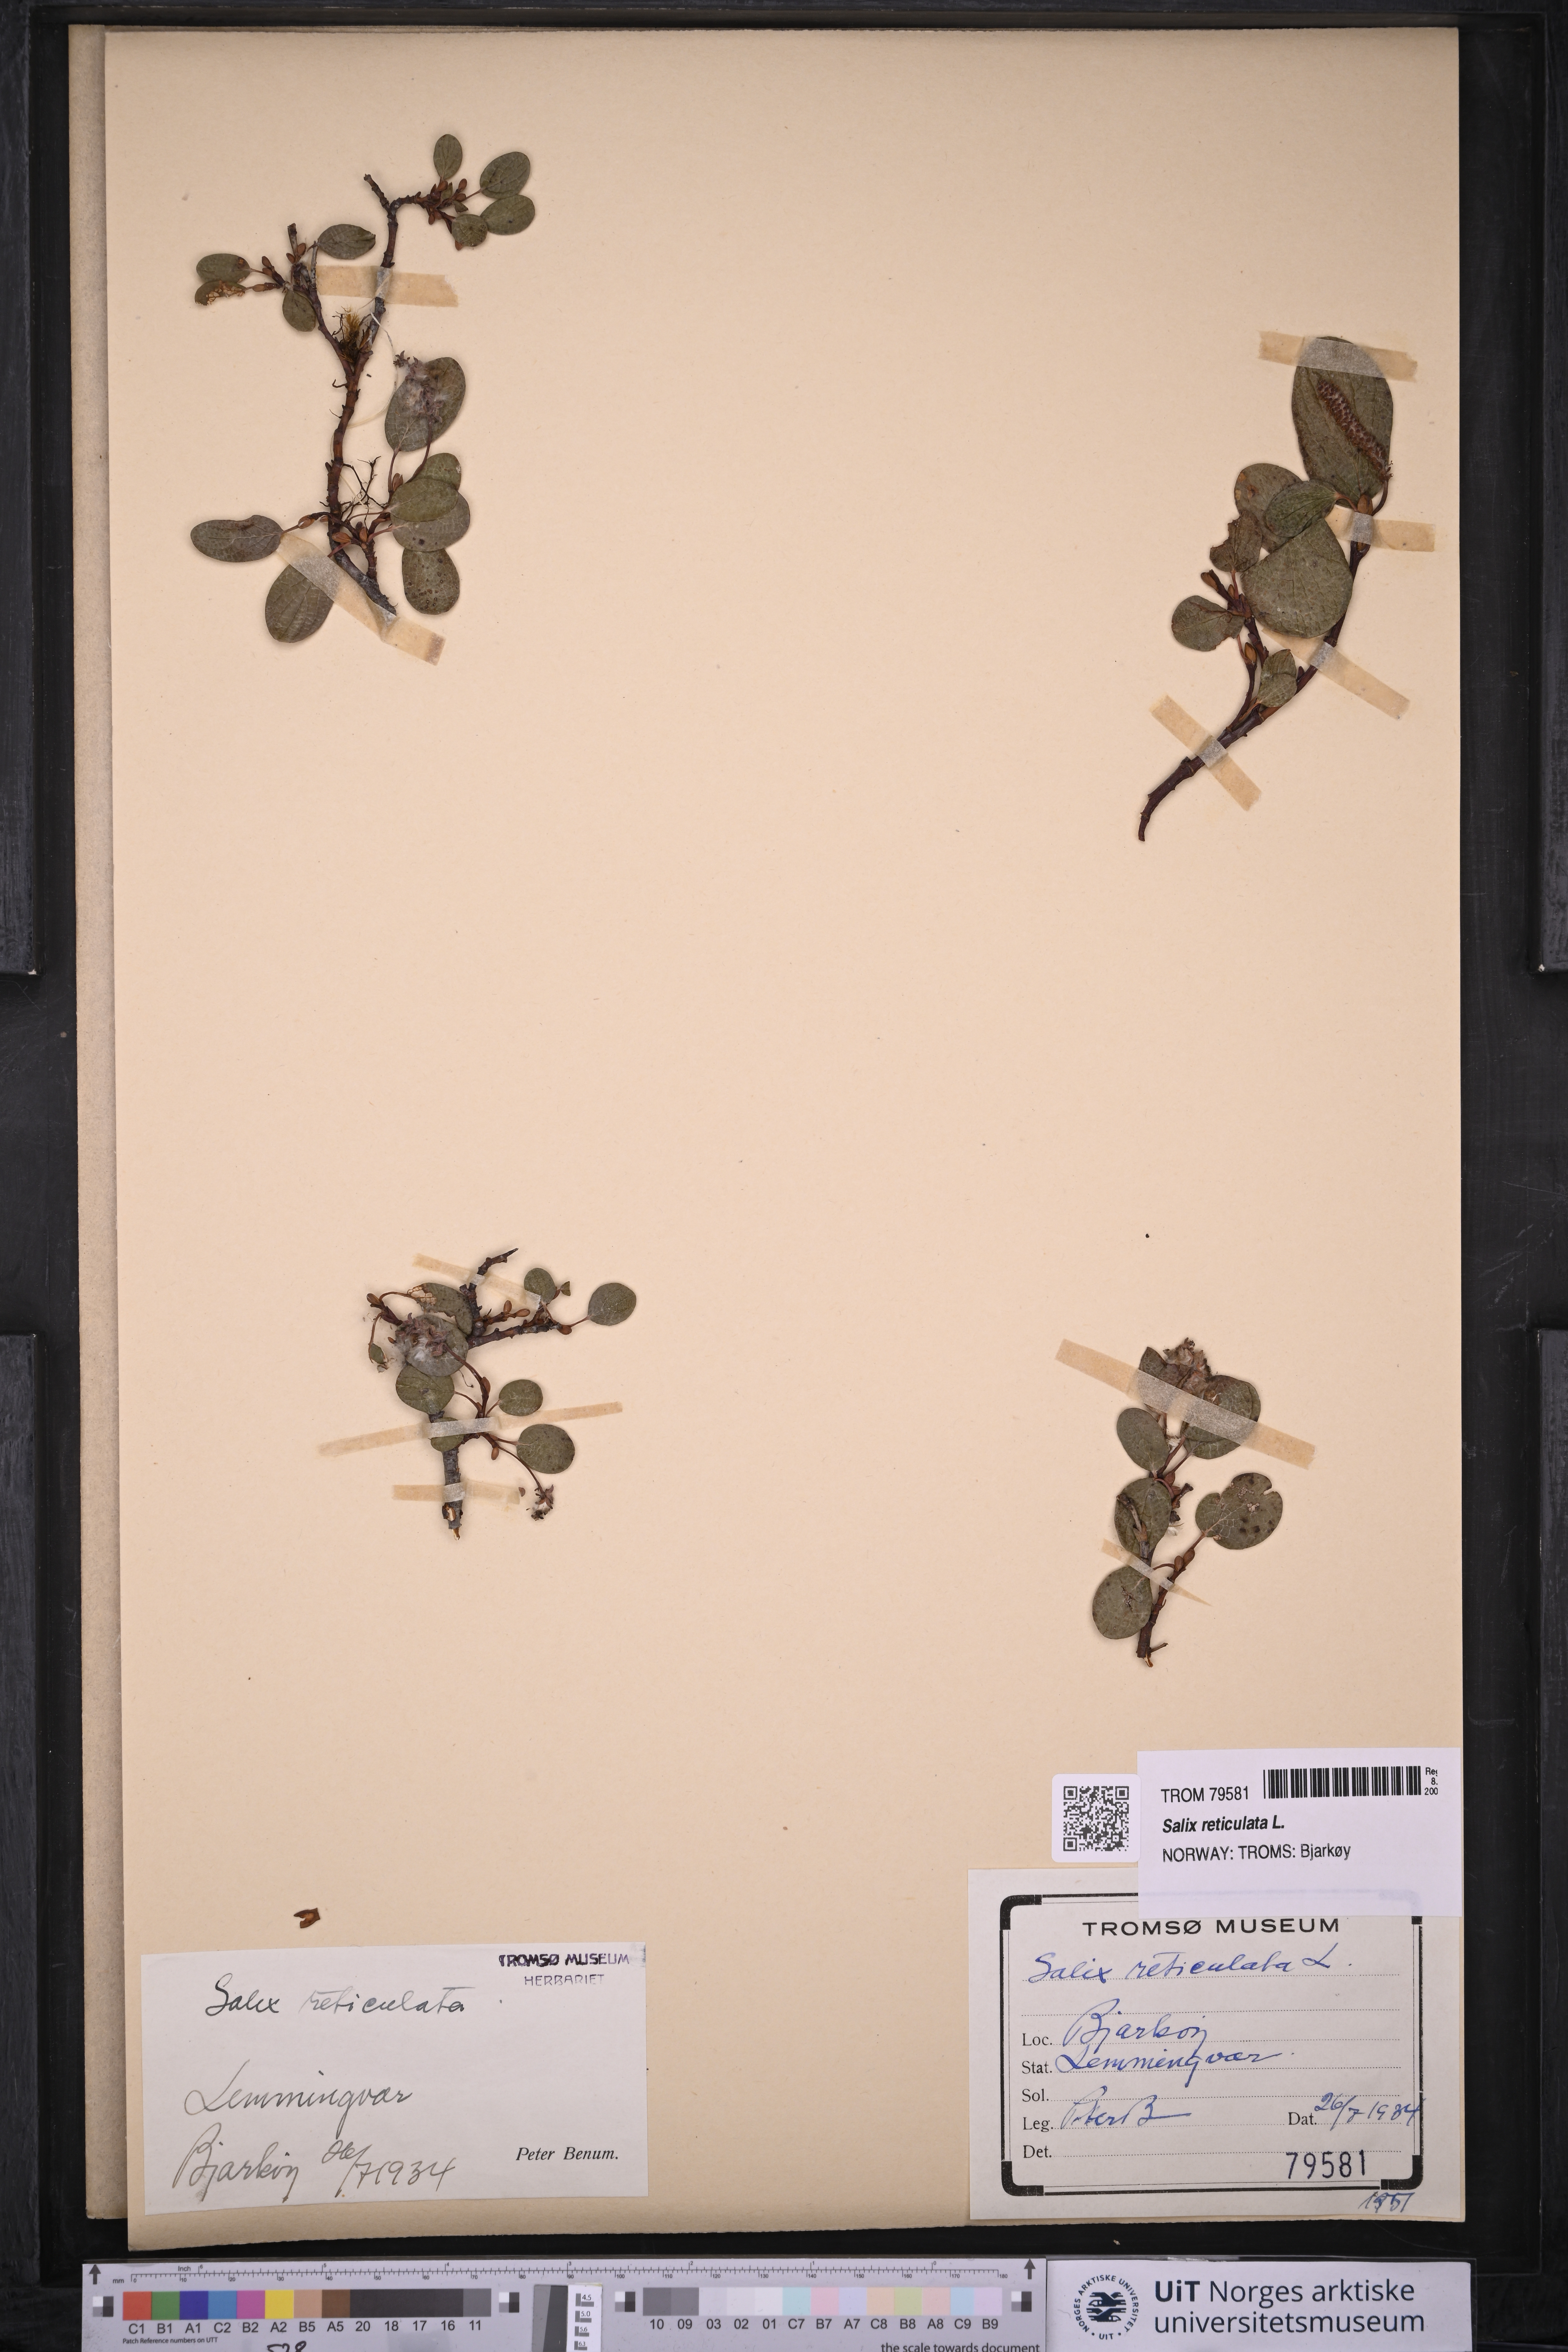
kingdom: Plantae
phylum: Tracheophyta
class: Magnoliopsida
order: Malpighiales
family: Salicaceae
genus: Salix
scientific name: Salix reticulata
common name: Net-leaved willow
